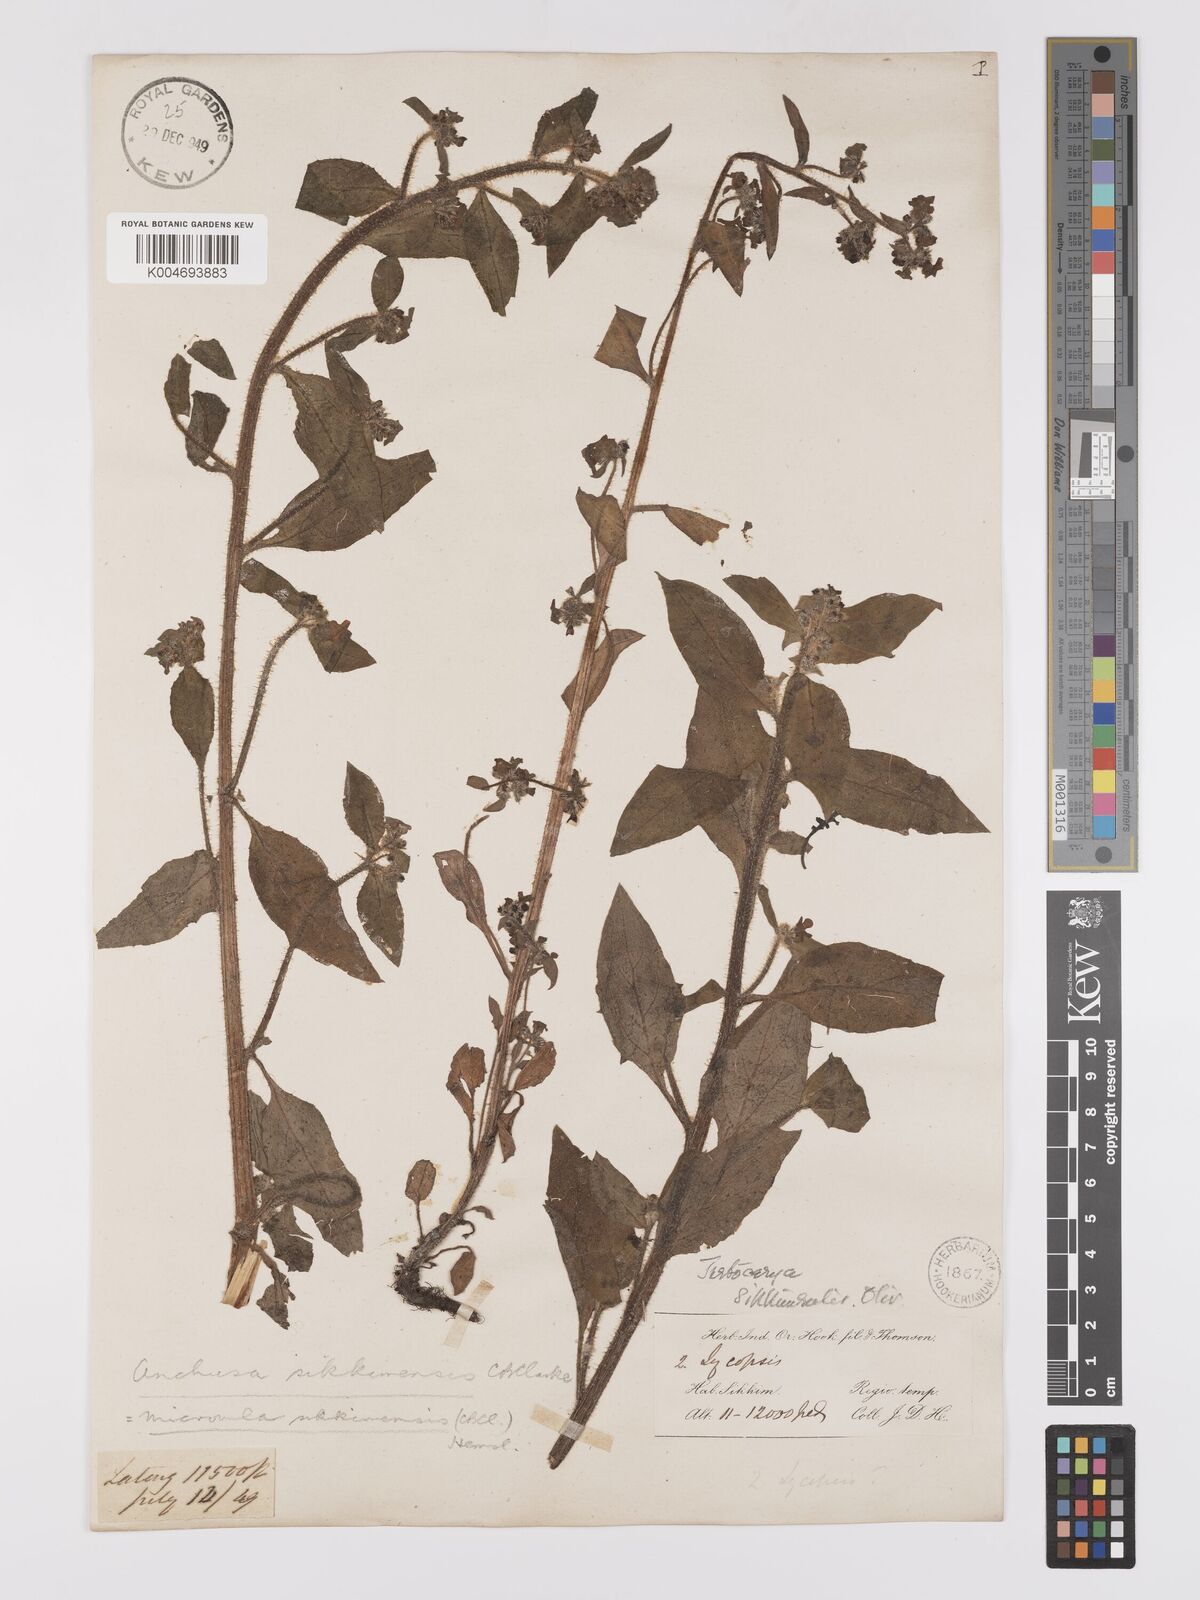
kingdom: Plantae
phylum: Tracheophyta
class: Magnoliopsida
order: Boraginales
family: Boraginaceae
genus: Microula
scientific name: Microula sikkimensis
